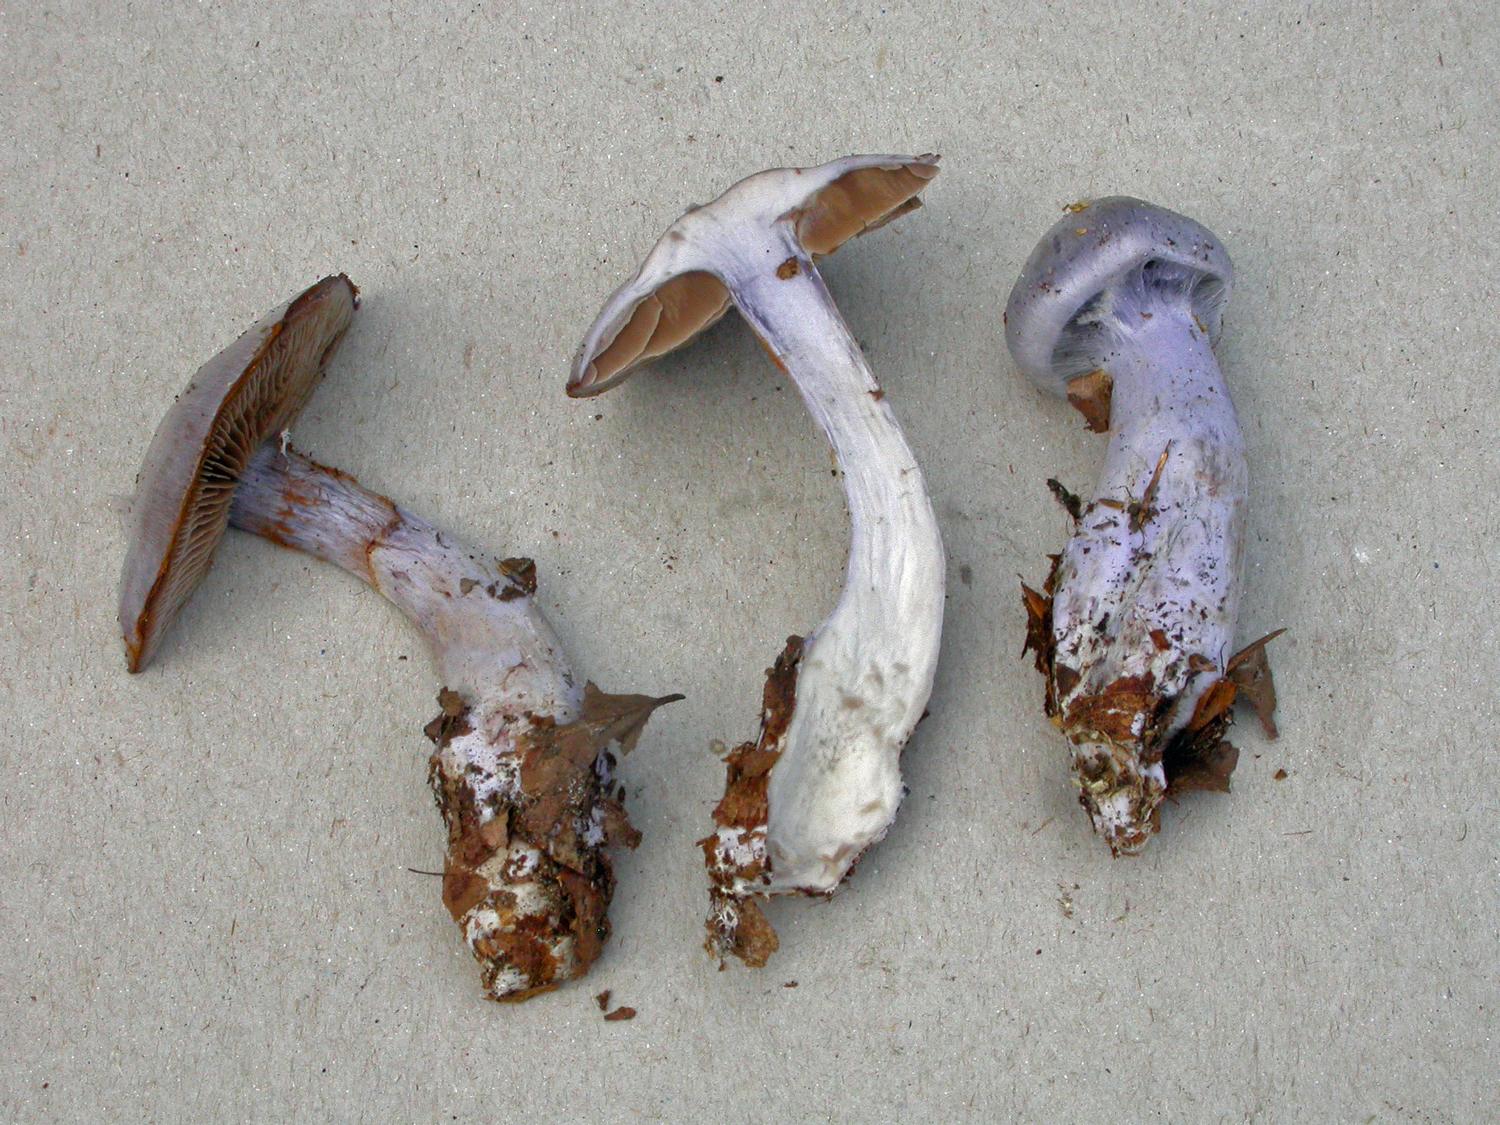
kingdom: Fungi
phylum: Basidiomycota
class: Agaricomycetes
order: Agaricales
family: Cortinariaceae
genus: Cortinarius
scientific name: Cortinarius alboviolaceus
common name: lysviolet slørhat
